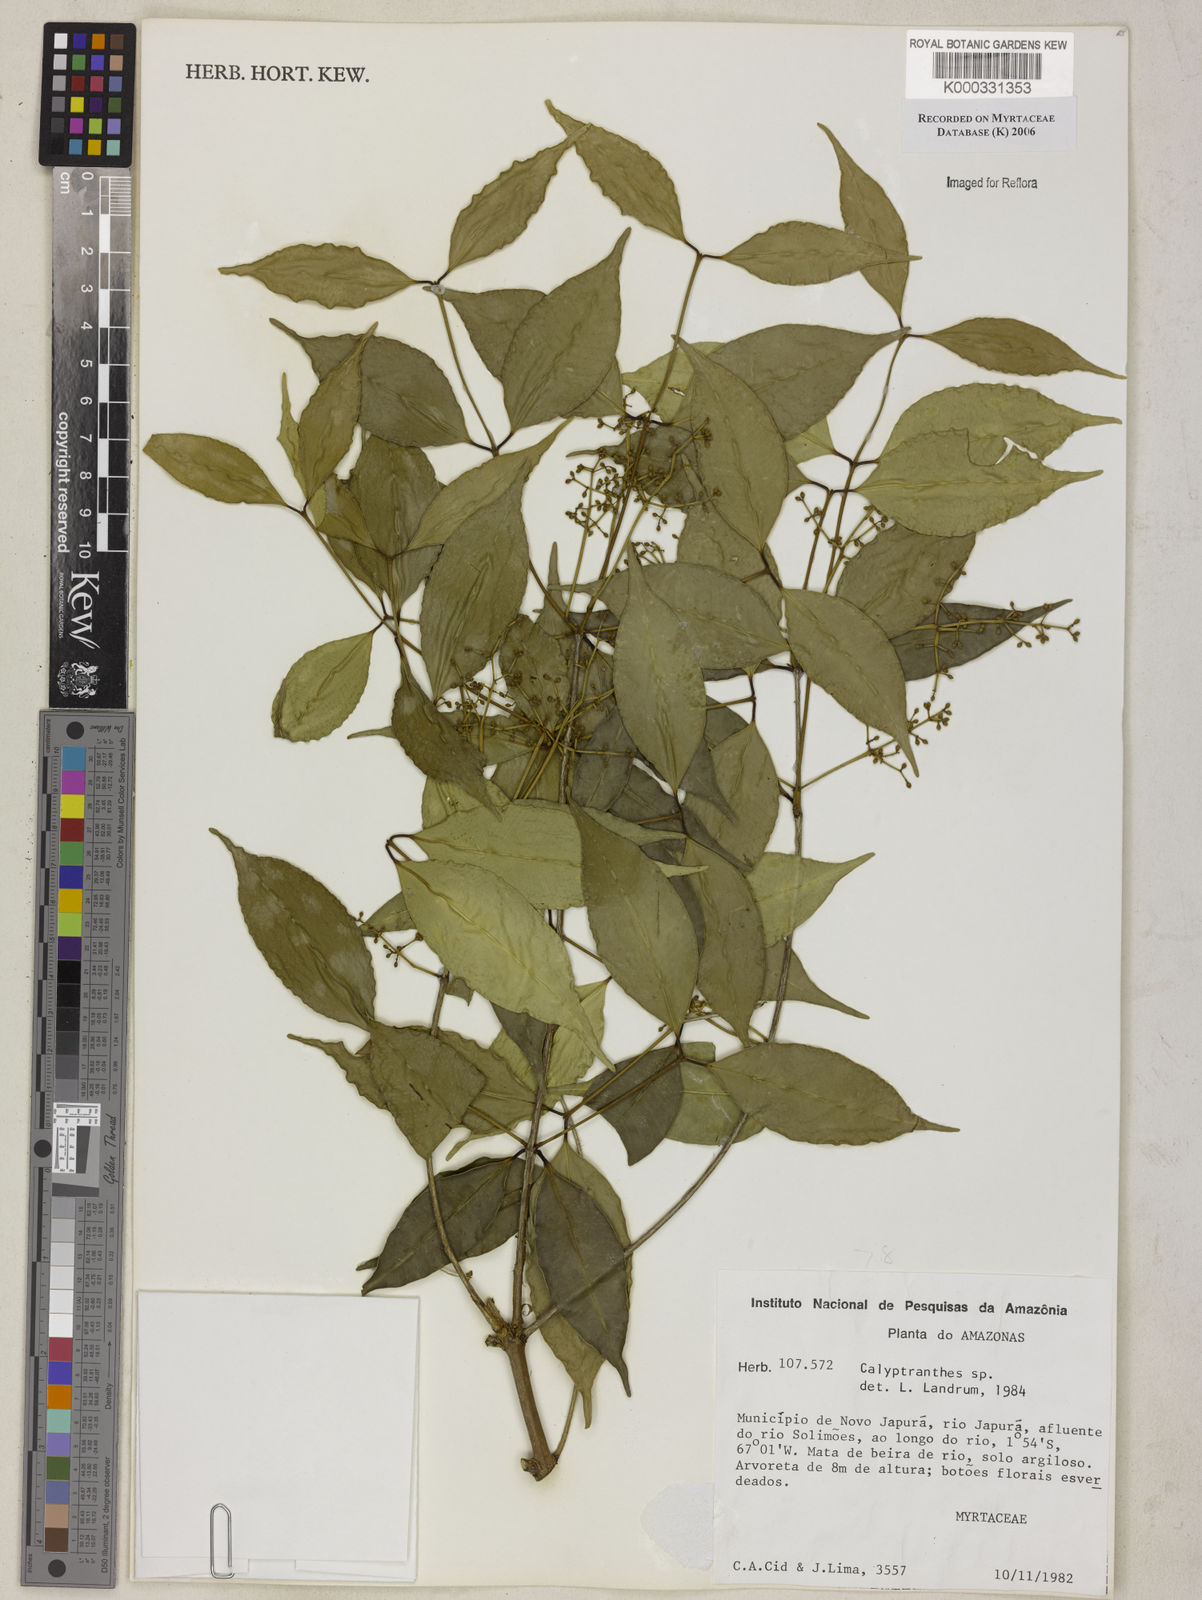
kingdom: Plantae
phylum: Tracheophyta
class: Magnoliopsida
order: Myrtales
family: Myrtaceae
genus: Calyptranthes
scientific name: Calyptranthes
